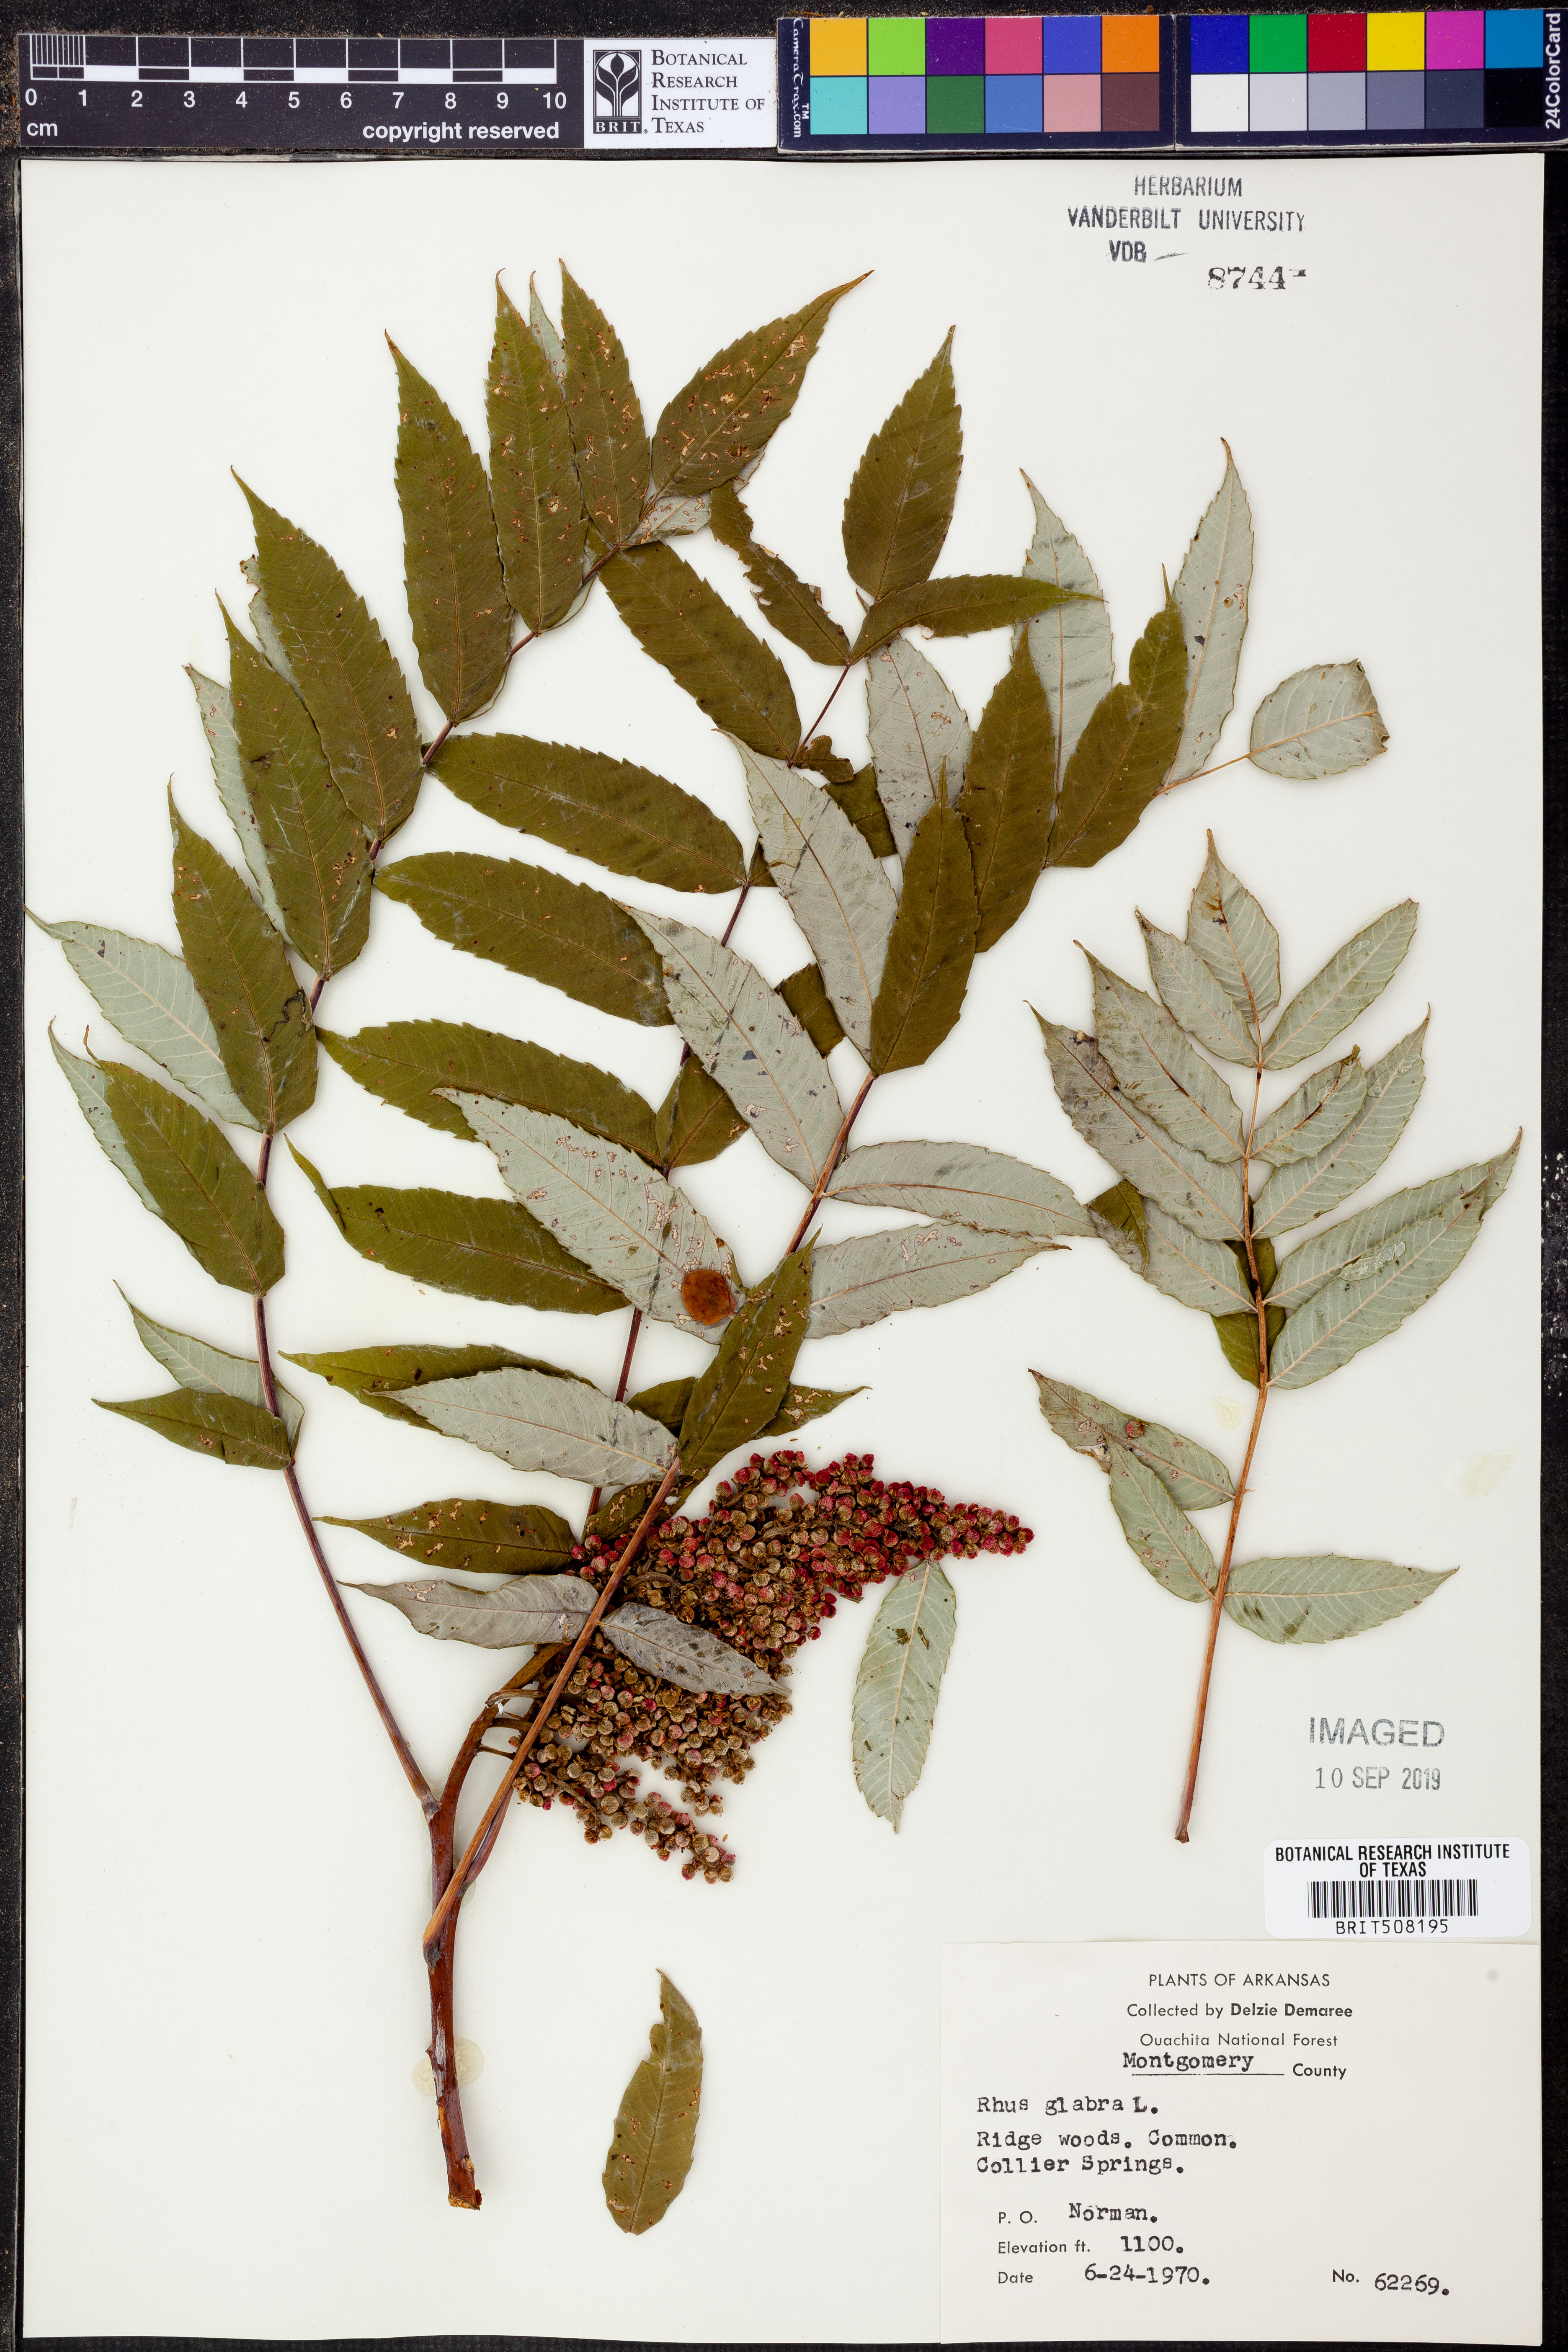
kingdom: Plantae
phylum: Tracheophyta
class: Magnoliopsida
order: Sapindales
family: Anacardiaceae
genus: Rhus
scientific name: Rhus glabra
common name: Scarlet sumac
